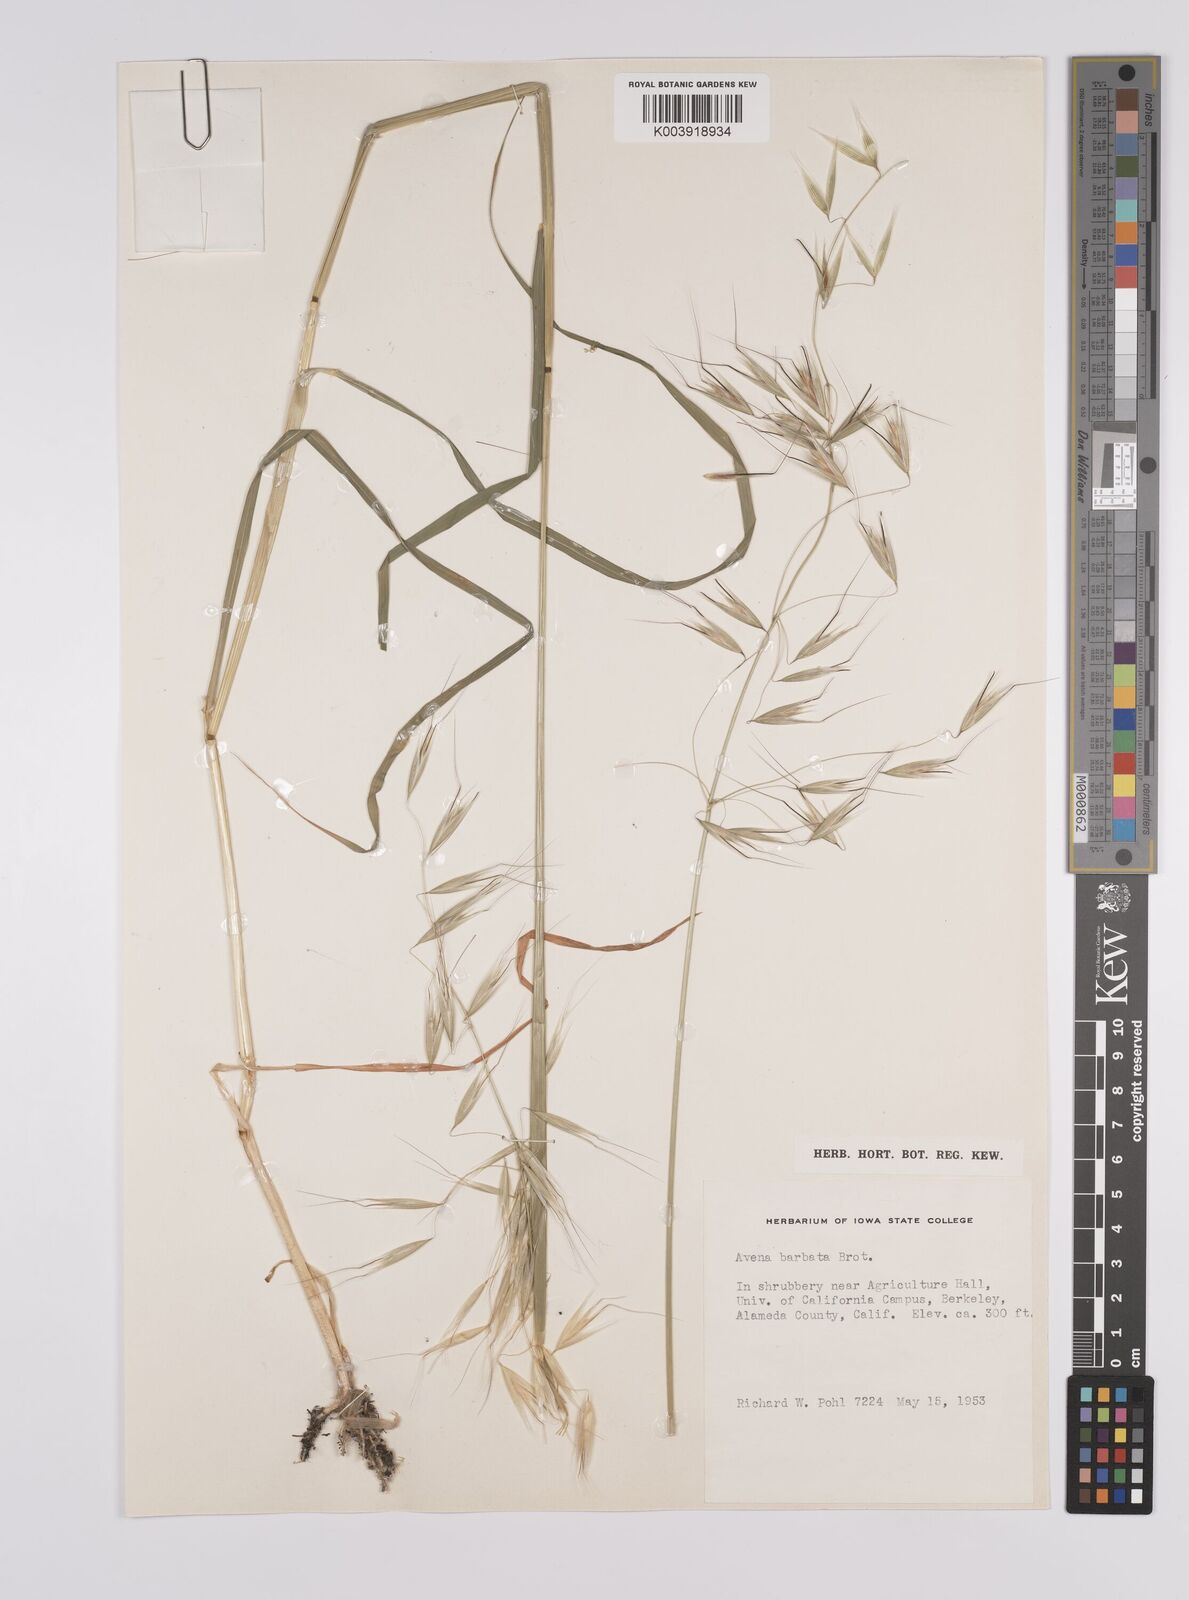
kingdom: Plantae
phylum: Tracheophyta
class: Liliopsida
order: Poales
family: Poaceae
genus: Avena
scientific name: Avena
